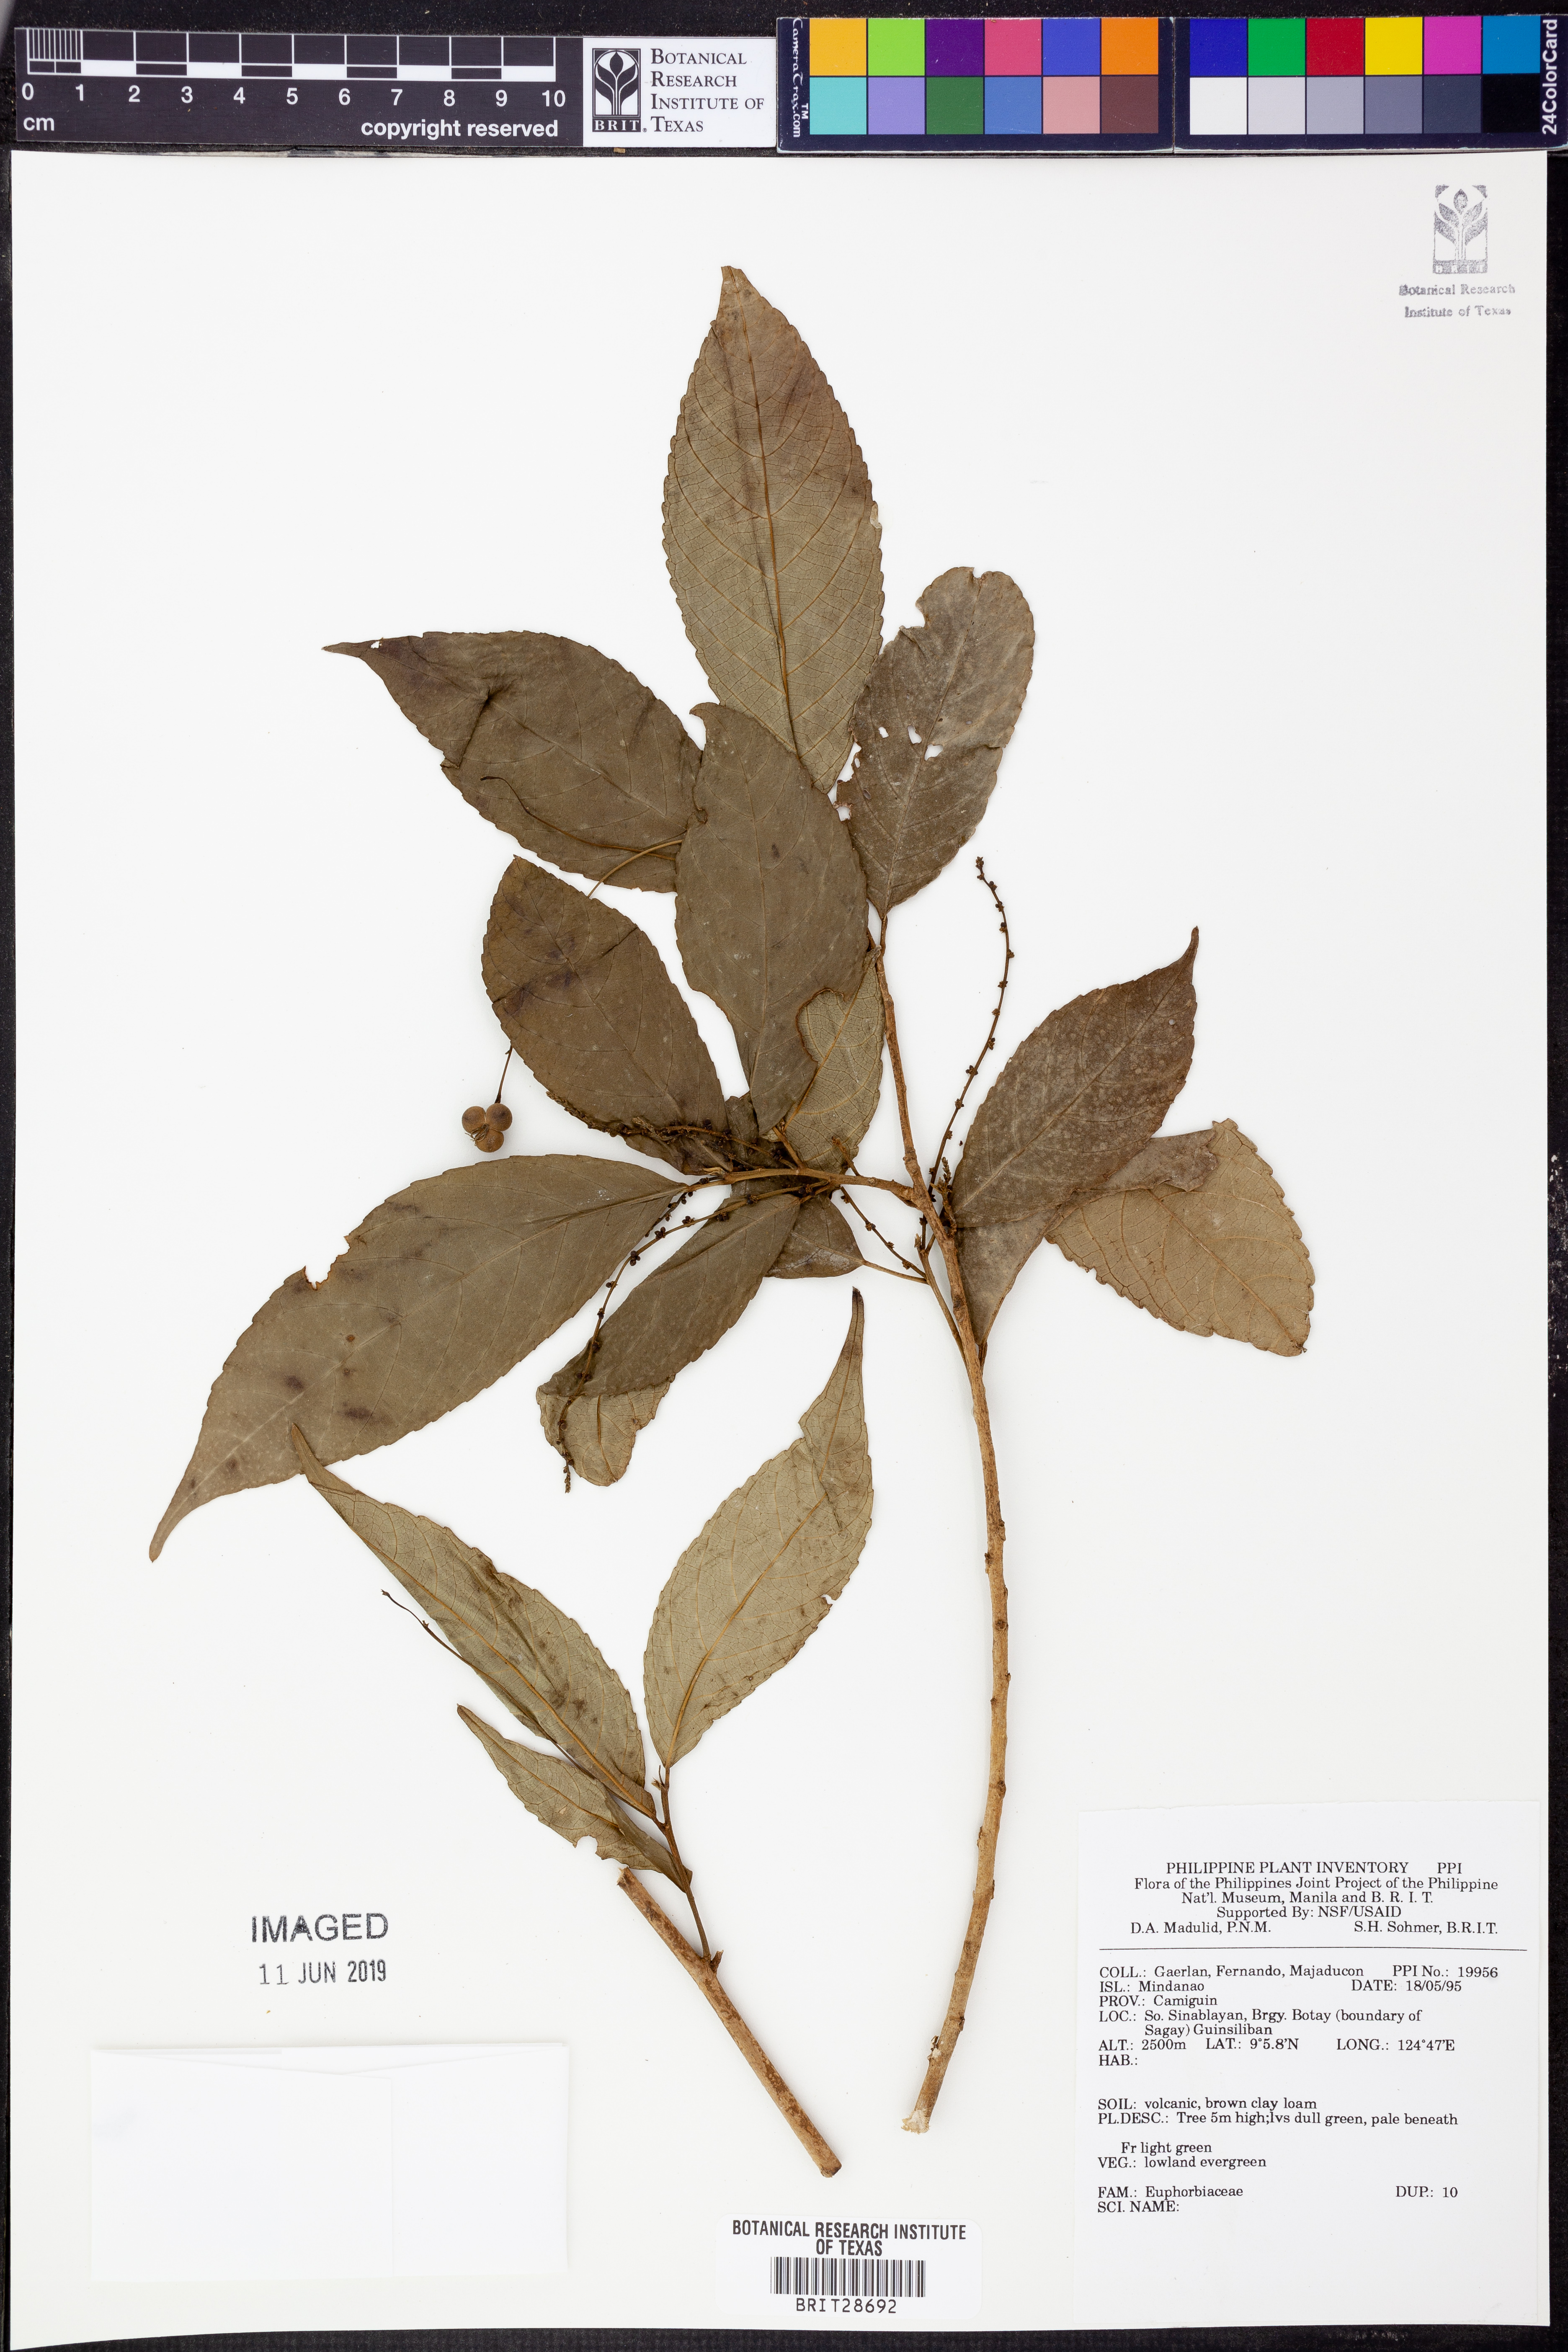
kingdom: Plantae
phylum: Tracheophyta
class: Magnoliopsida
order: Malpighiales
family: Euphorbiaceae
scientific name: Euphorbiaceae
